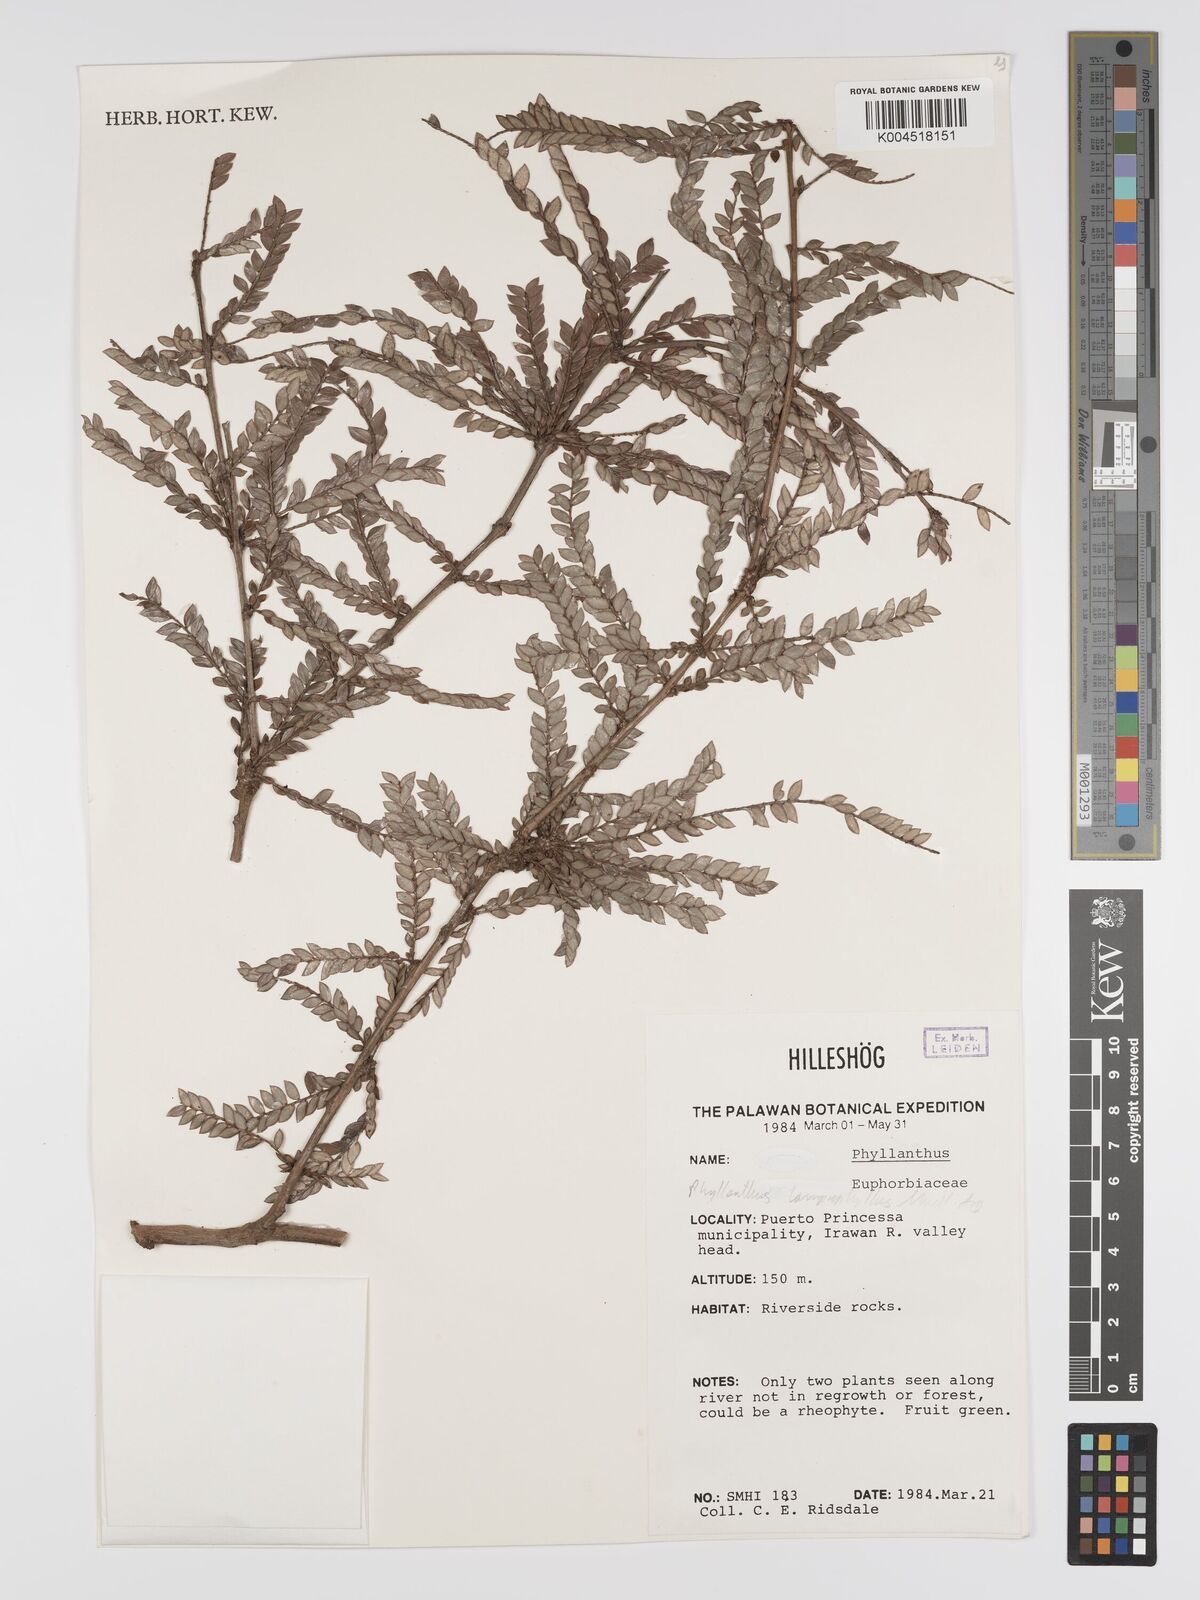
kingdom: Plantae
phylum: Tracheophyta
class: Magnoliopsida
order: Malpighiales
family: Phyllanthaceae
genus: Glochidion
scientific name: Glochidion lamprophyllum
